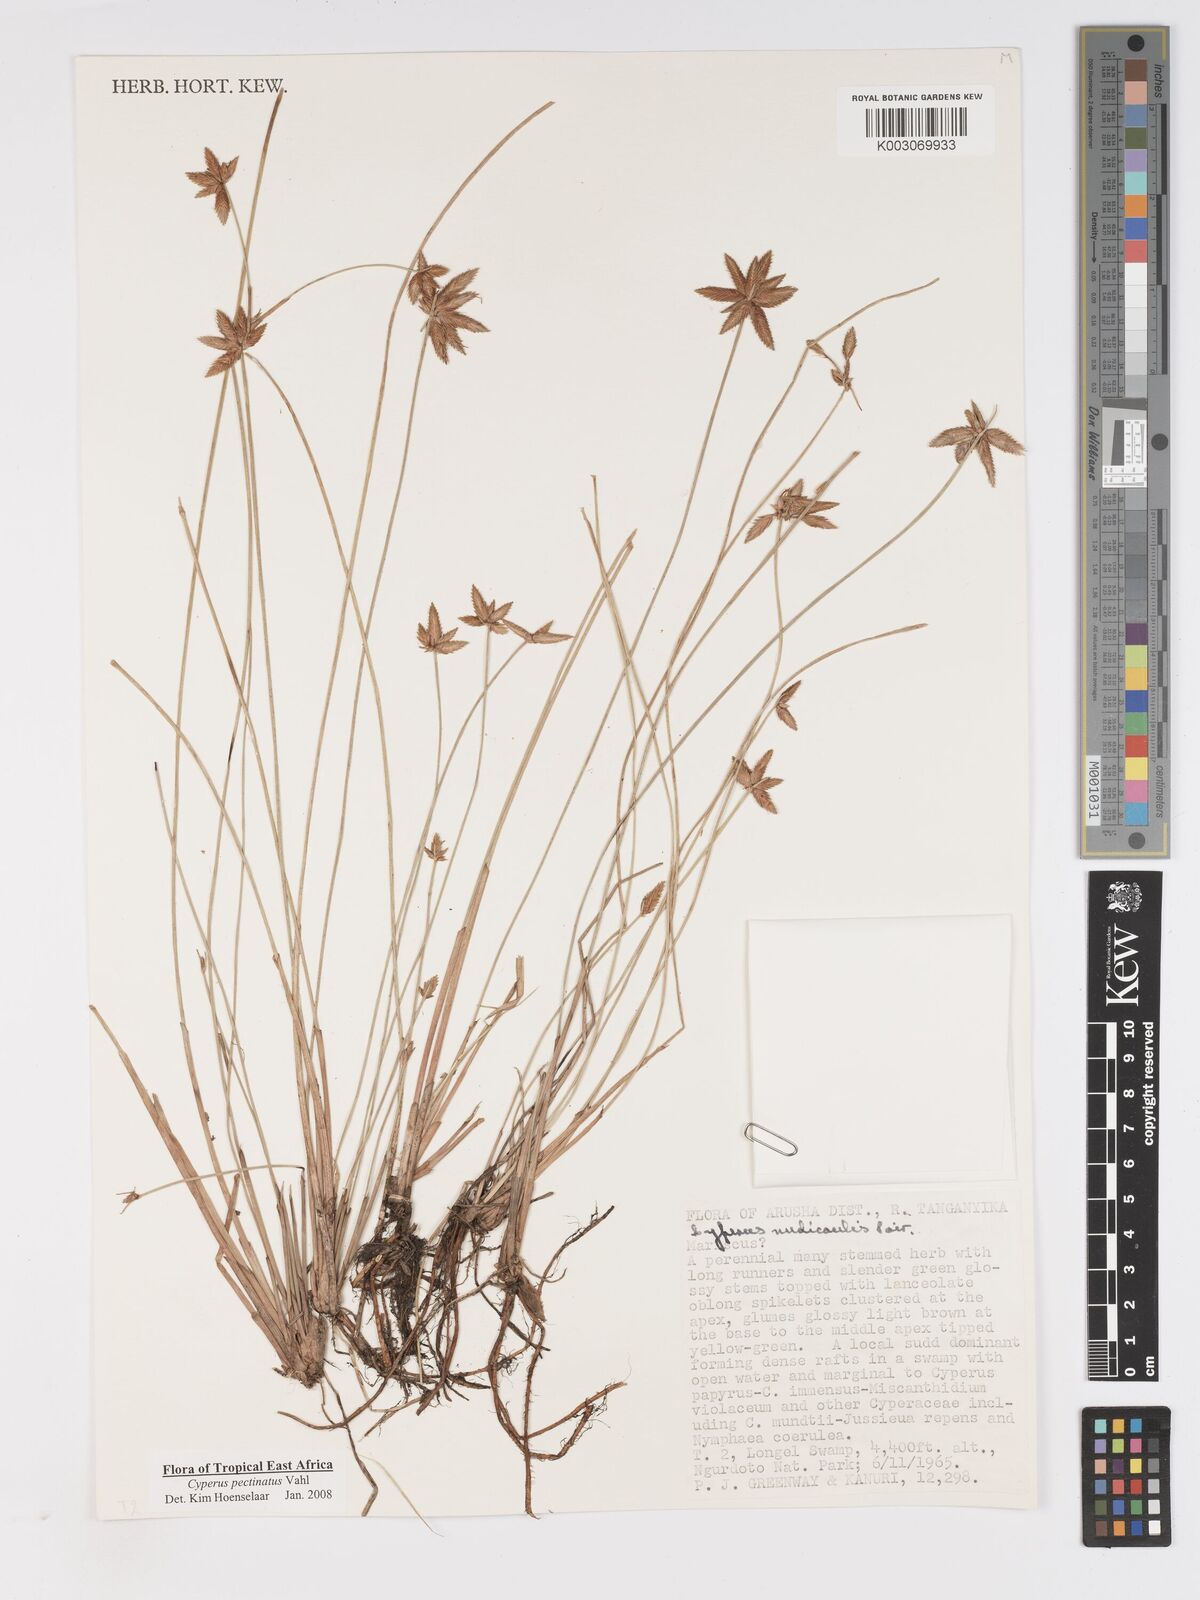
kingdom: Plantae
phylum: Tracheophyta
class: Liliopsida
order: Poales
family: Cyperaceae
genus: Cyperus
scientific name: Cyperus pectinatus
